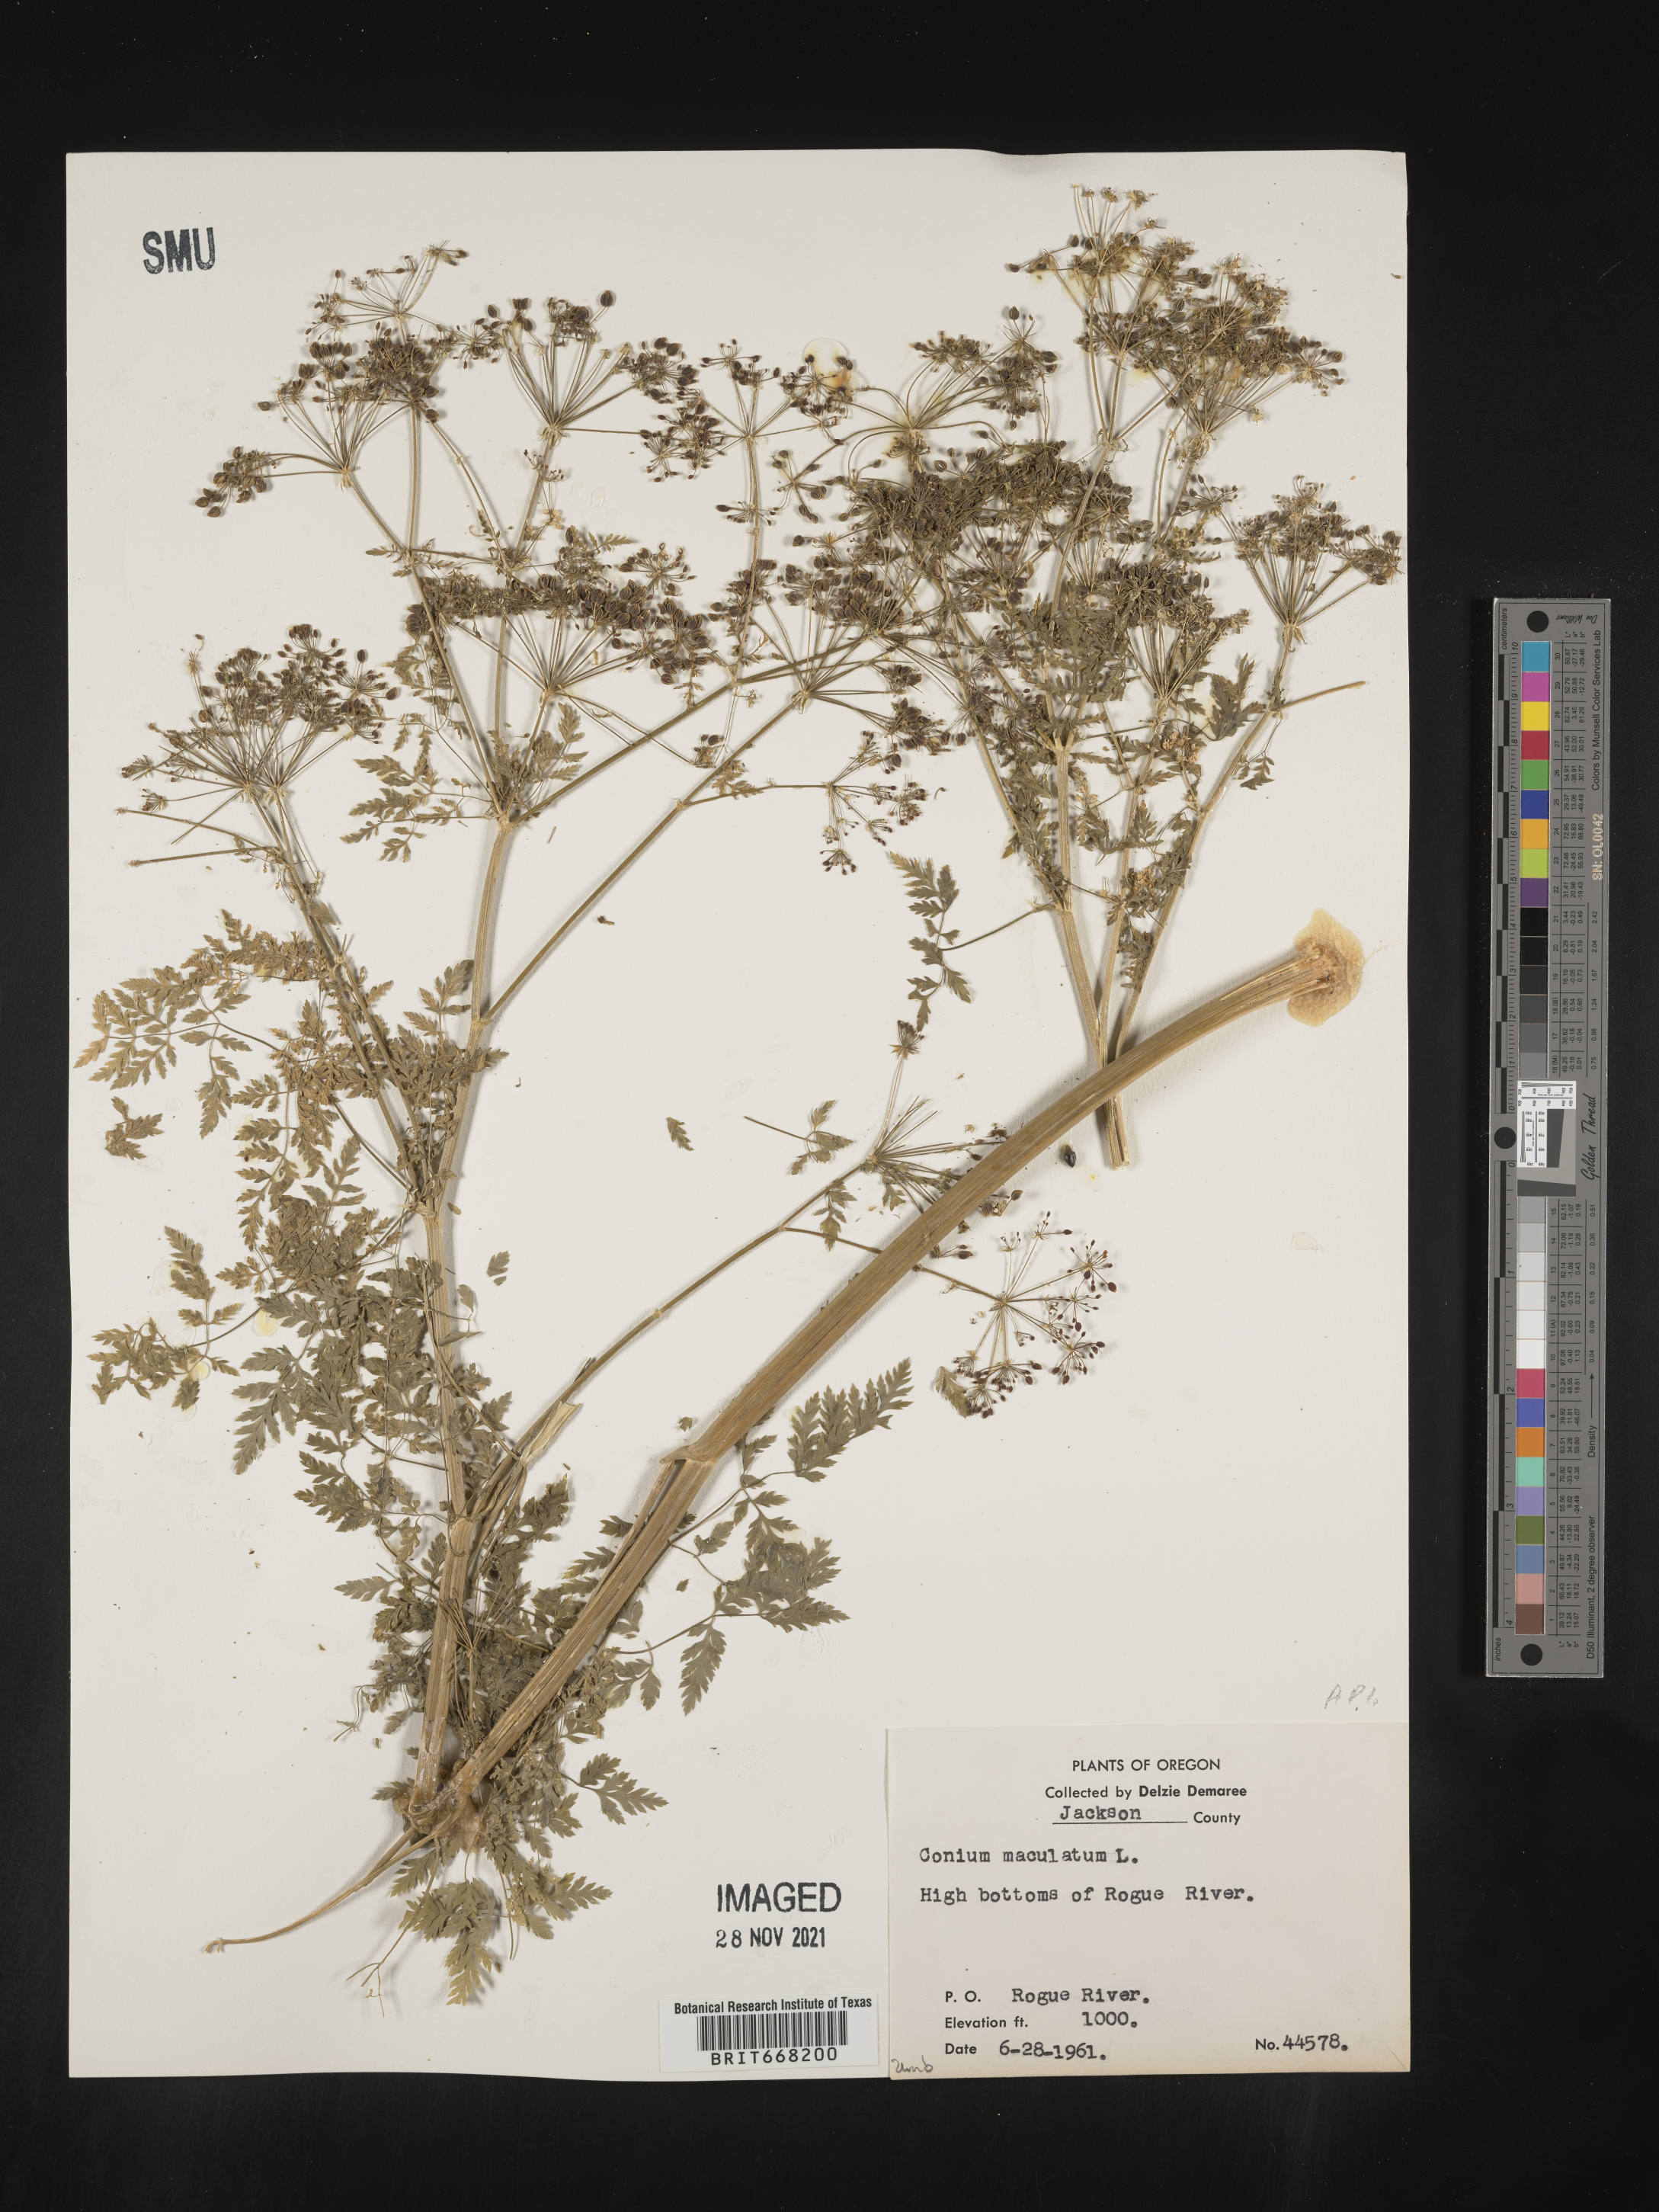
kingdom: Plantae
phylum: Tracheophyta
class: Magnoliopsida
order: Apiales
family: Apiaceae
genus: Conium
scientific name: Conium maculatum
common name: Hemlock
